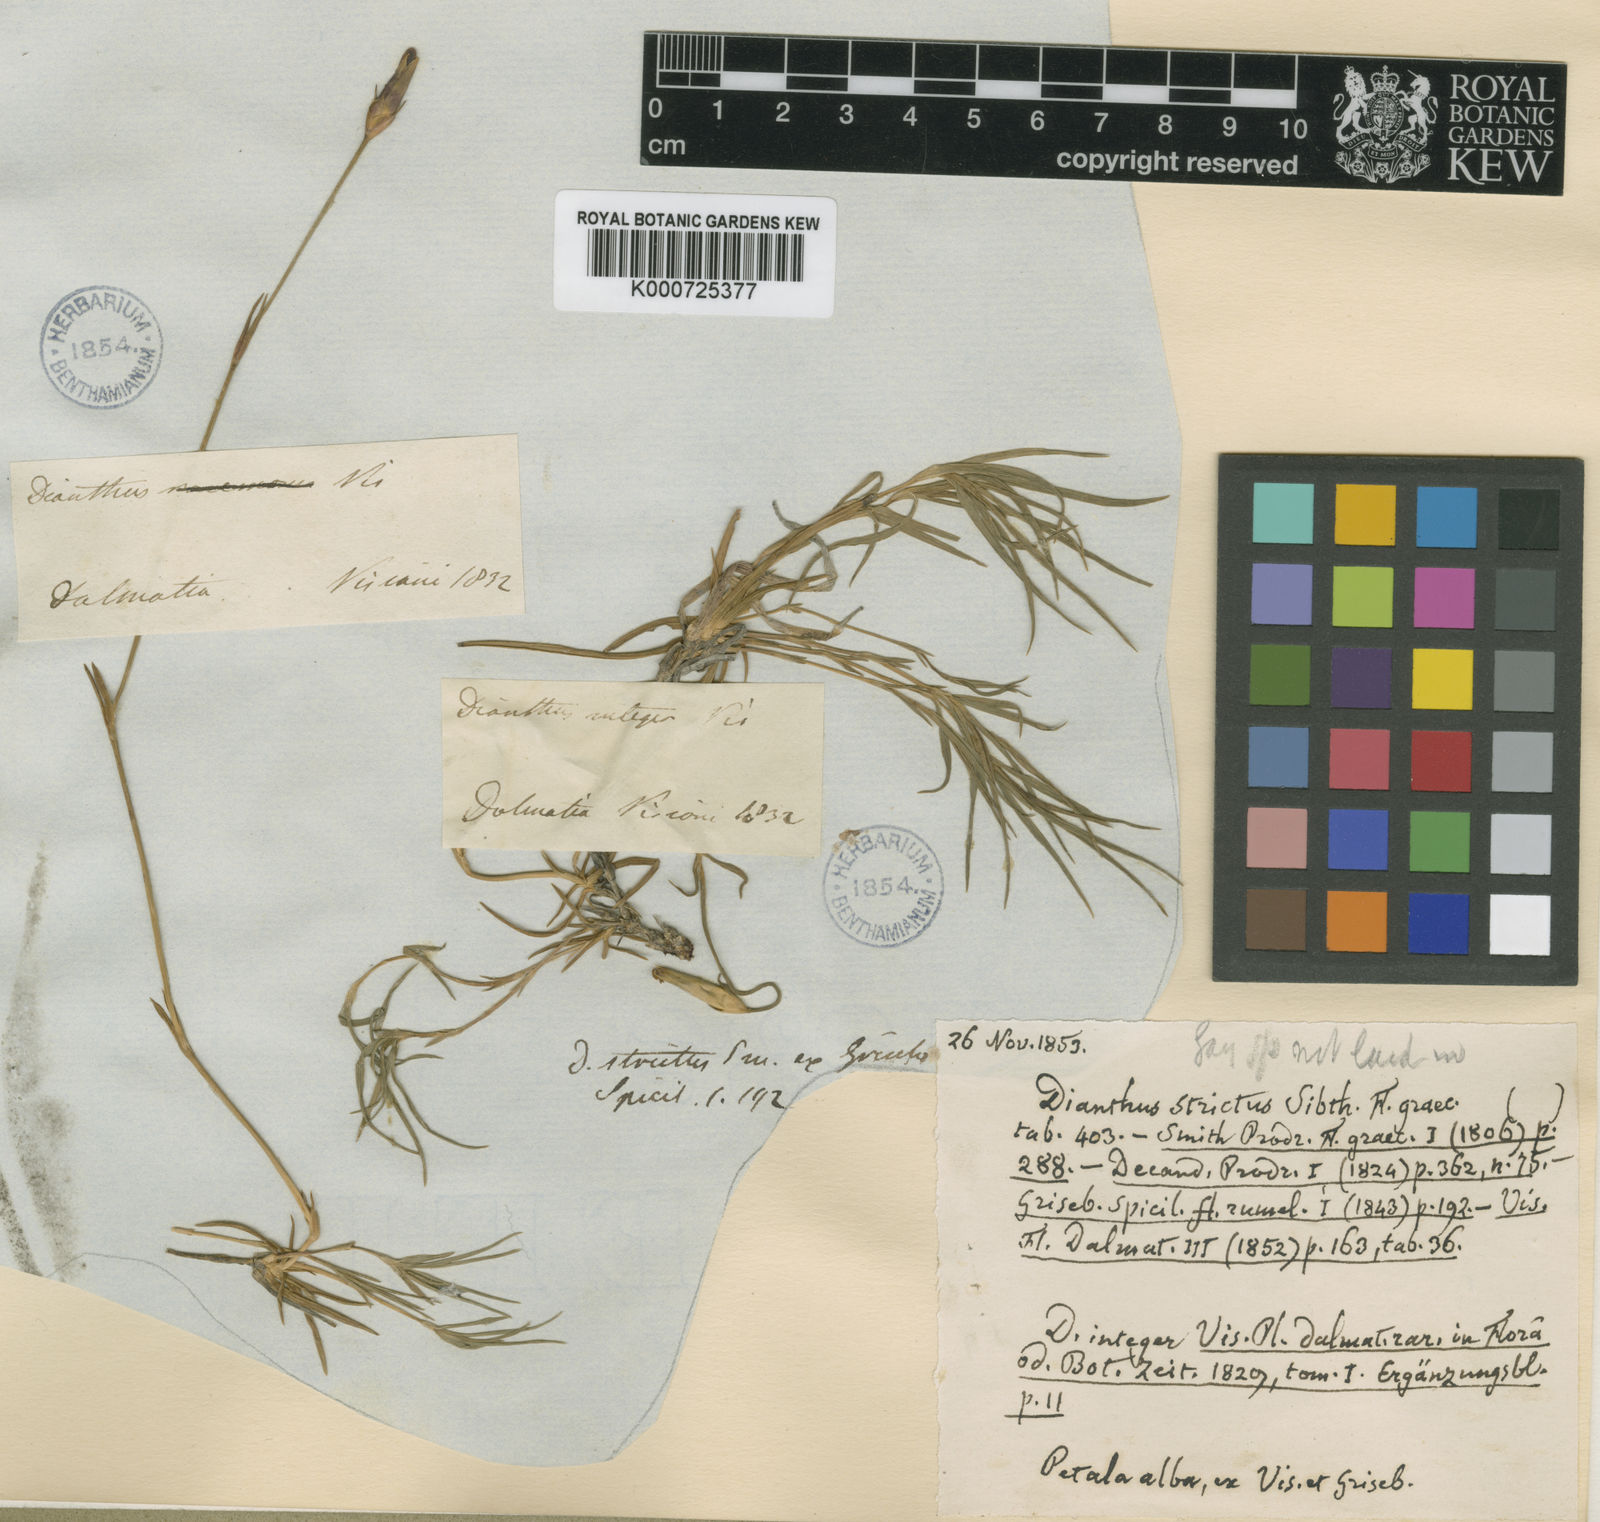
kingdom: Plantae
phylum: Tracheophyta
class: Magnoliopsida
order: Caryophyllales
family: Caryophyllaceae
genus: Dianthus
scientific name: Dianthus integer
